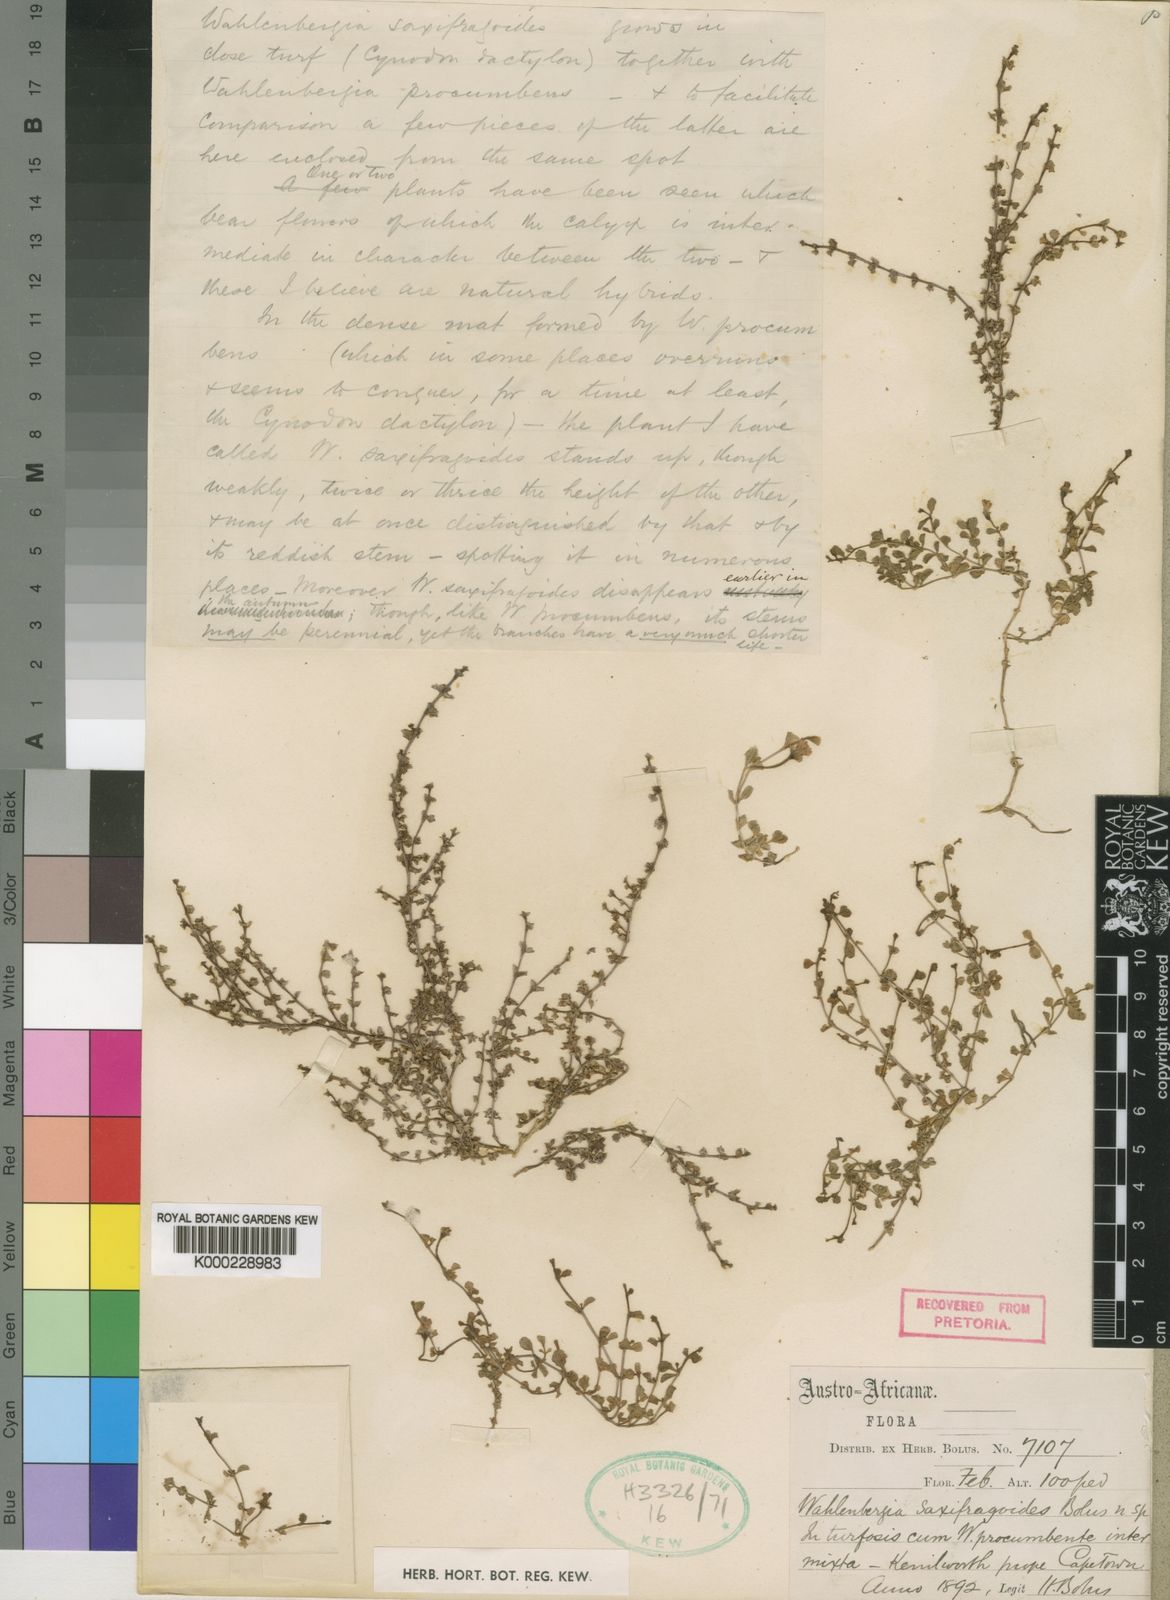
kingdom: Plantae
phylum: Tracheophyta
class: Magnoliopsida
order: Asterales
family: Campanulaceae
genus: Wahlenbergia
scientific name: Wahlenbergia procumbens
